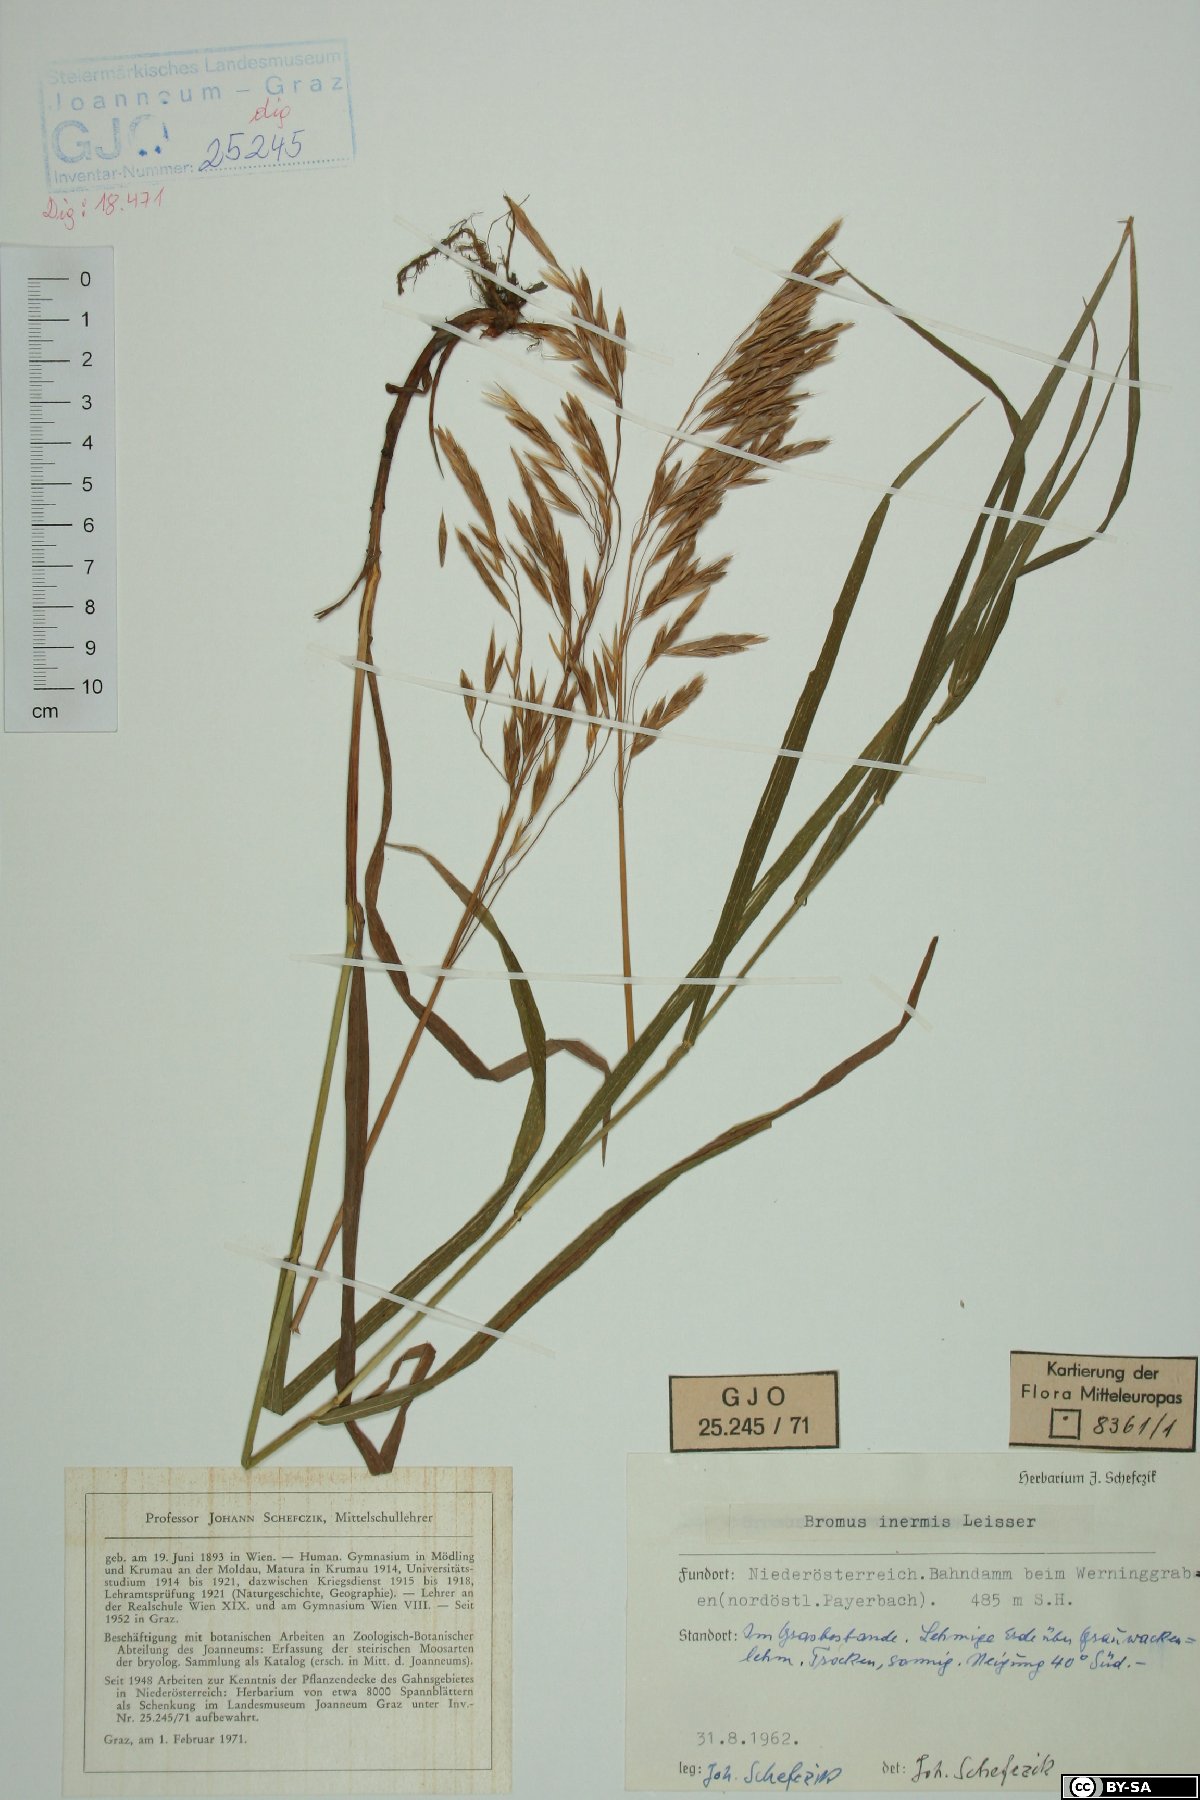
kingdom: Plantae
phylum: Tracheophyta
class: Liliopsida
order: Poales
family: Poaceae
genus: Bromus
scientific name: Bromus inermis
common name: Smooth brome
